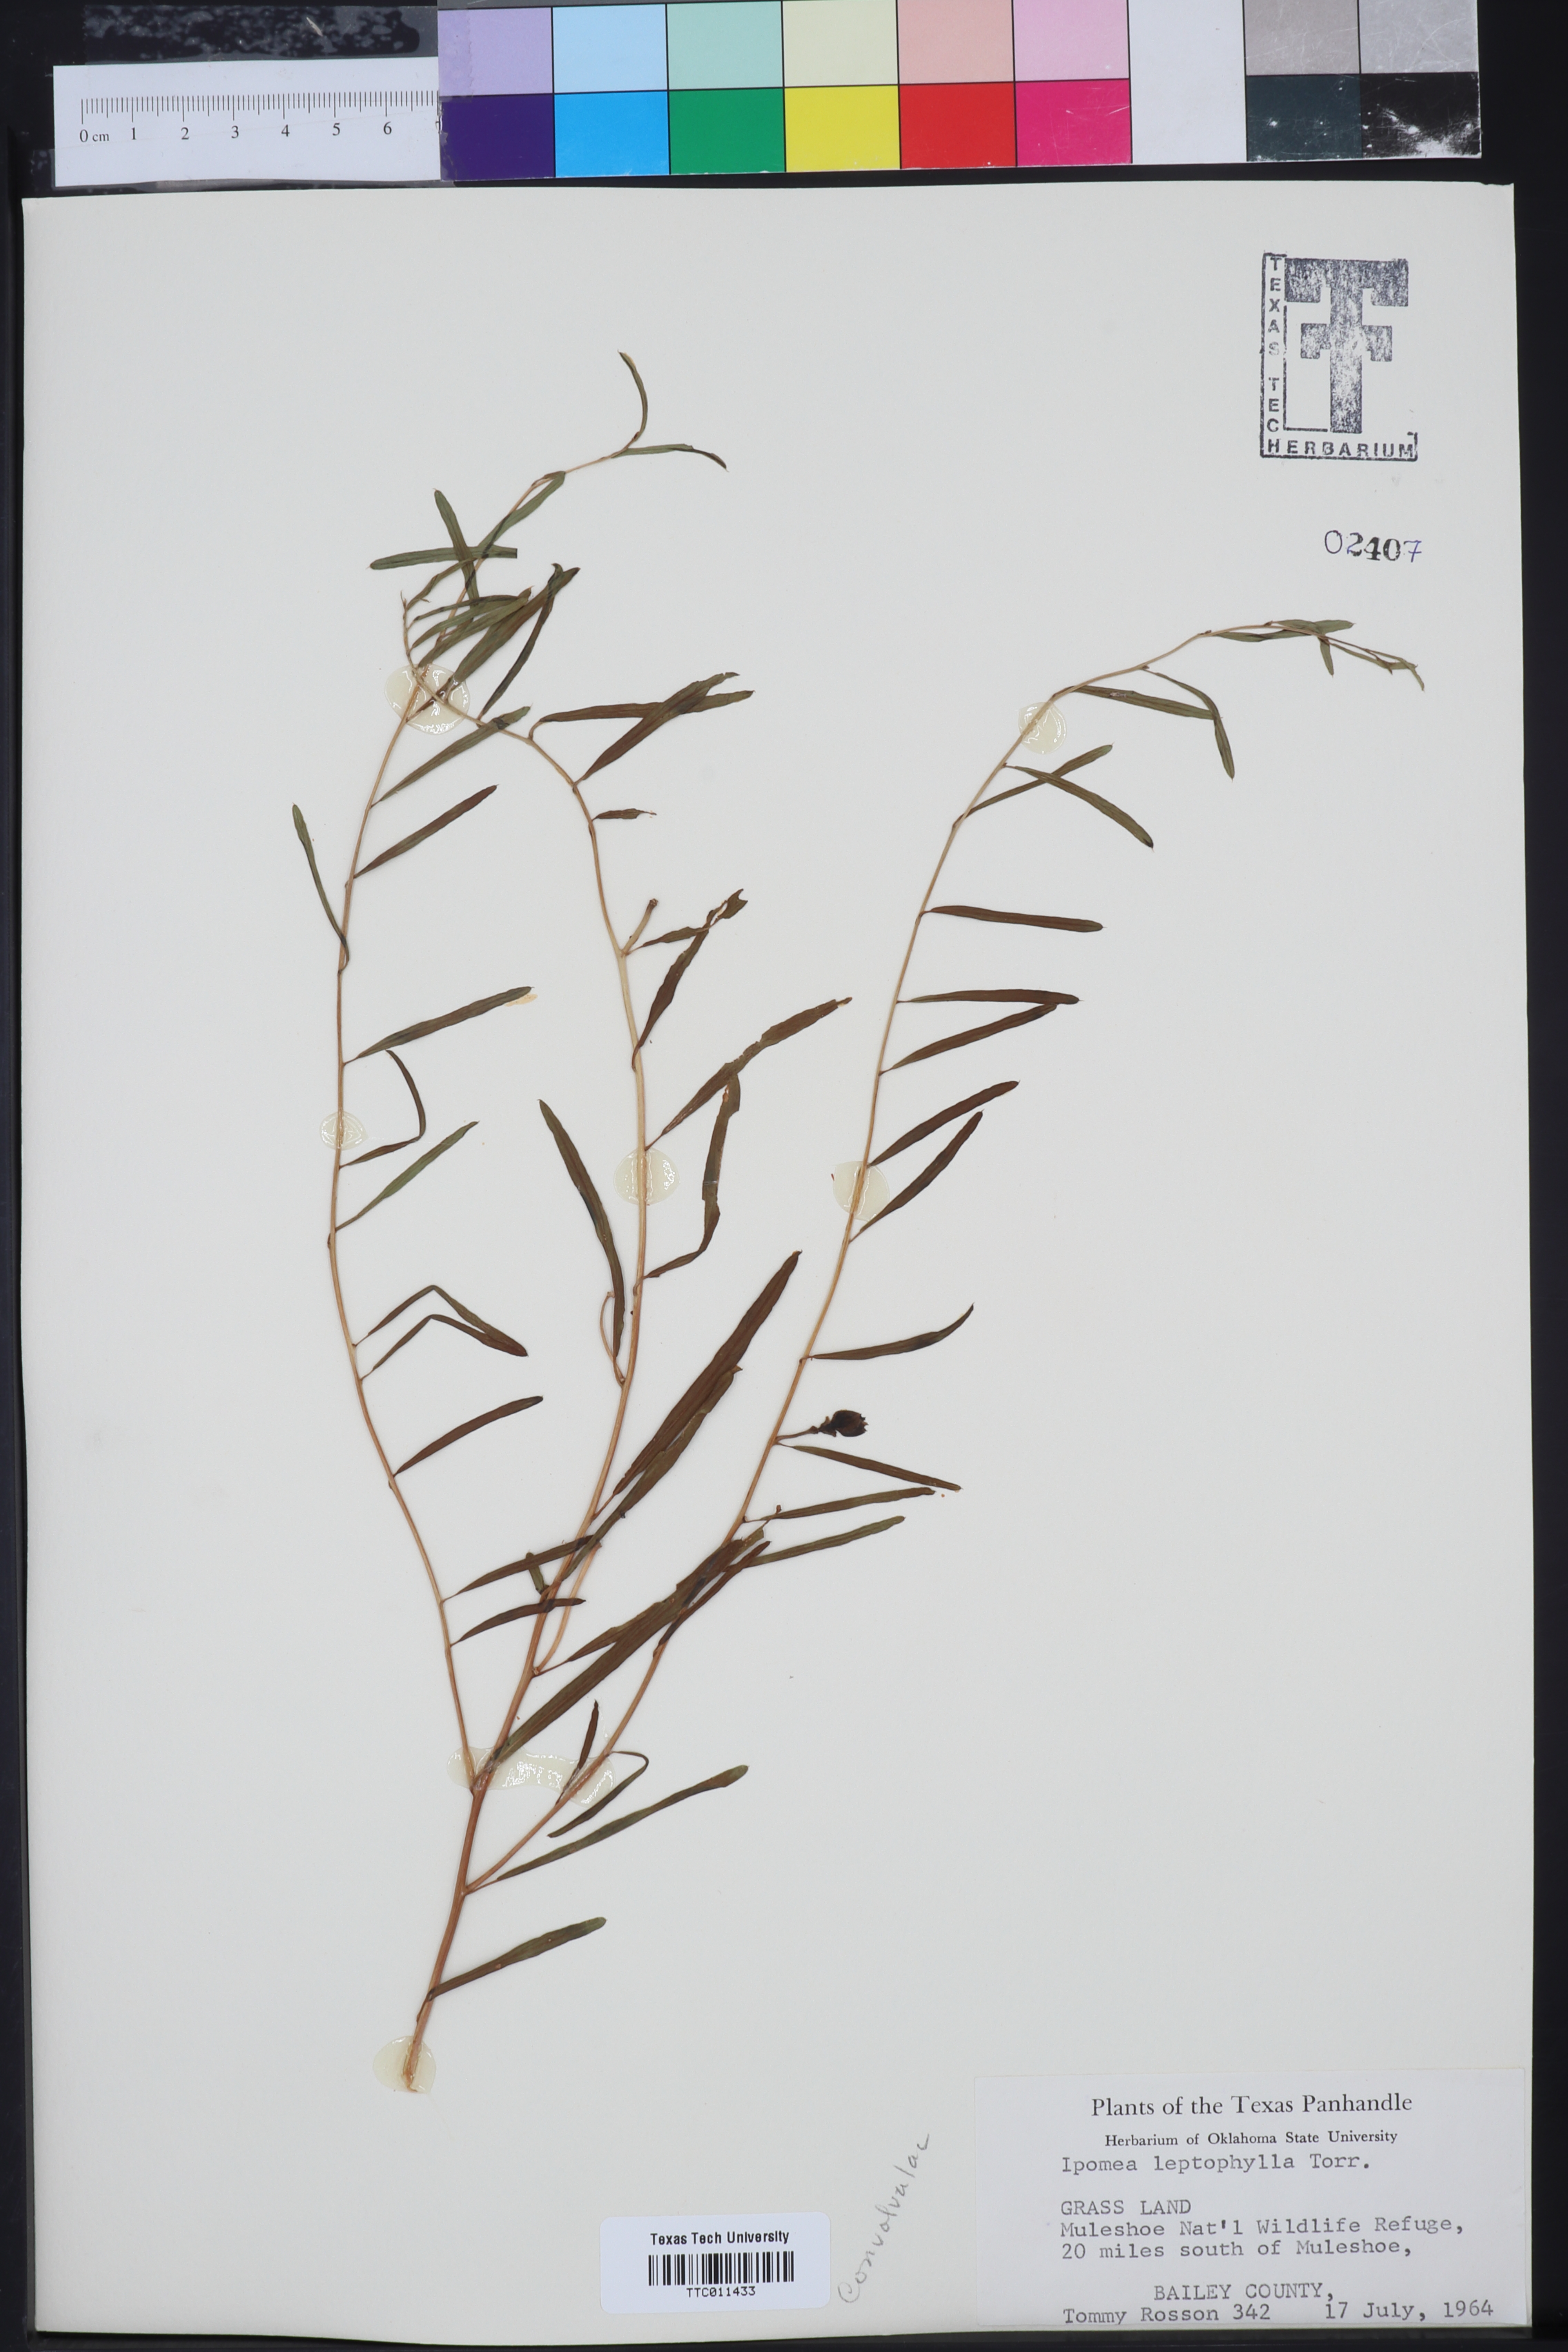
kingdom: Plantae
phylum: Tracheophyta
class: Magnoliopsida
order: Solanales
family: Convolvulaceae
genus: Ipomoea
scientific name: Ipomoea leptophylla
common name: Bush moonflower
